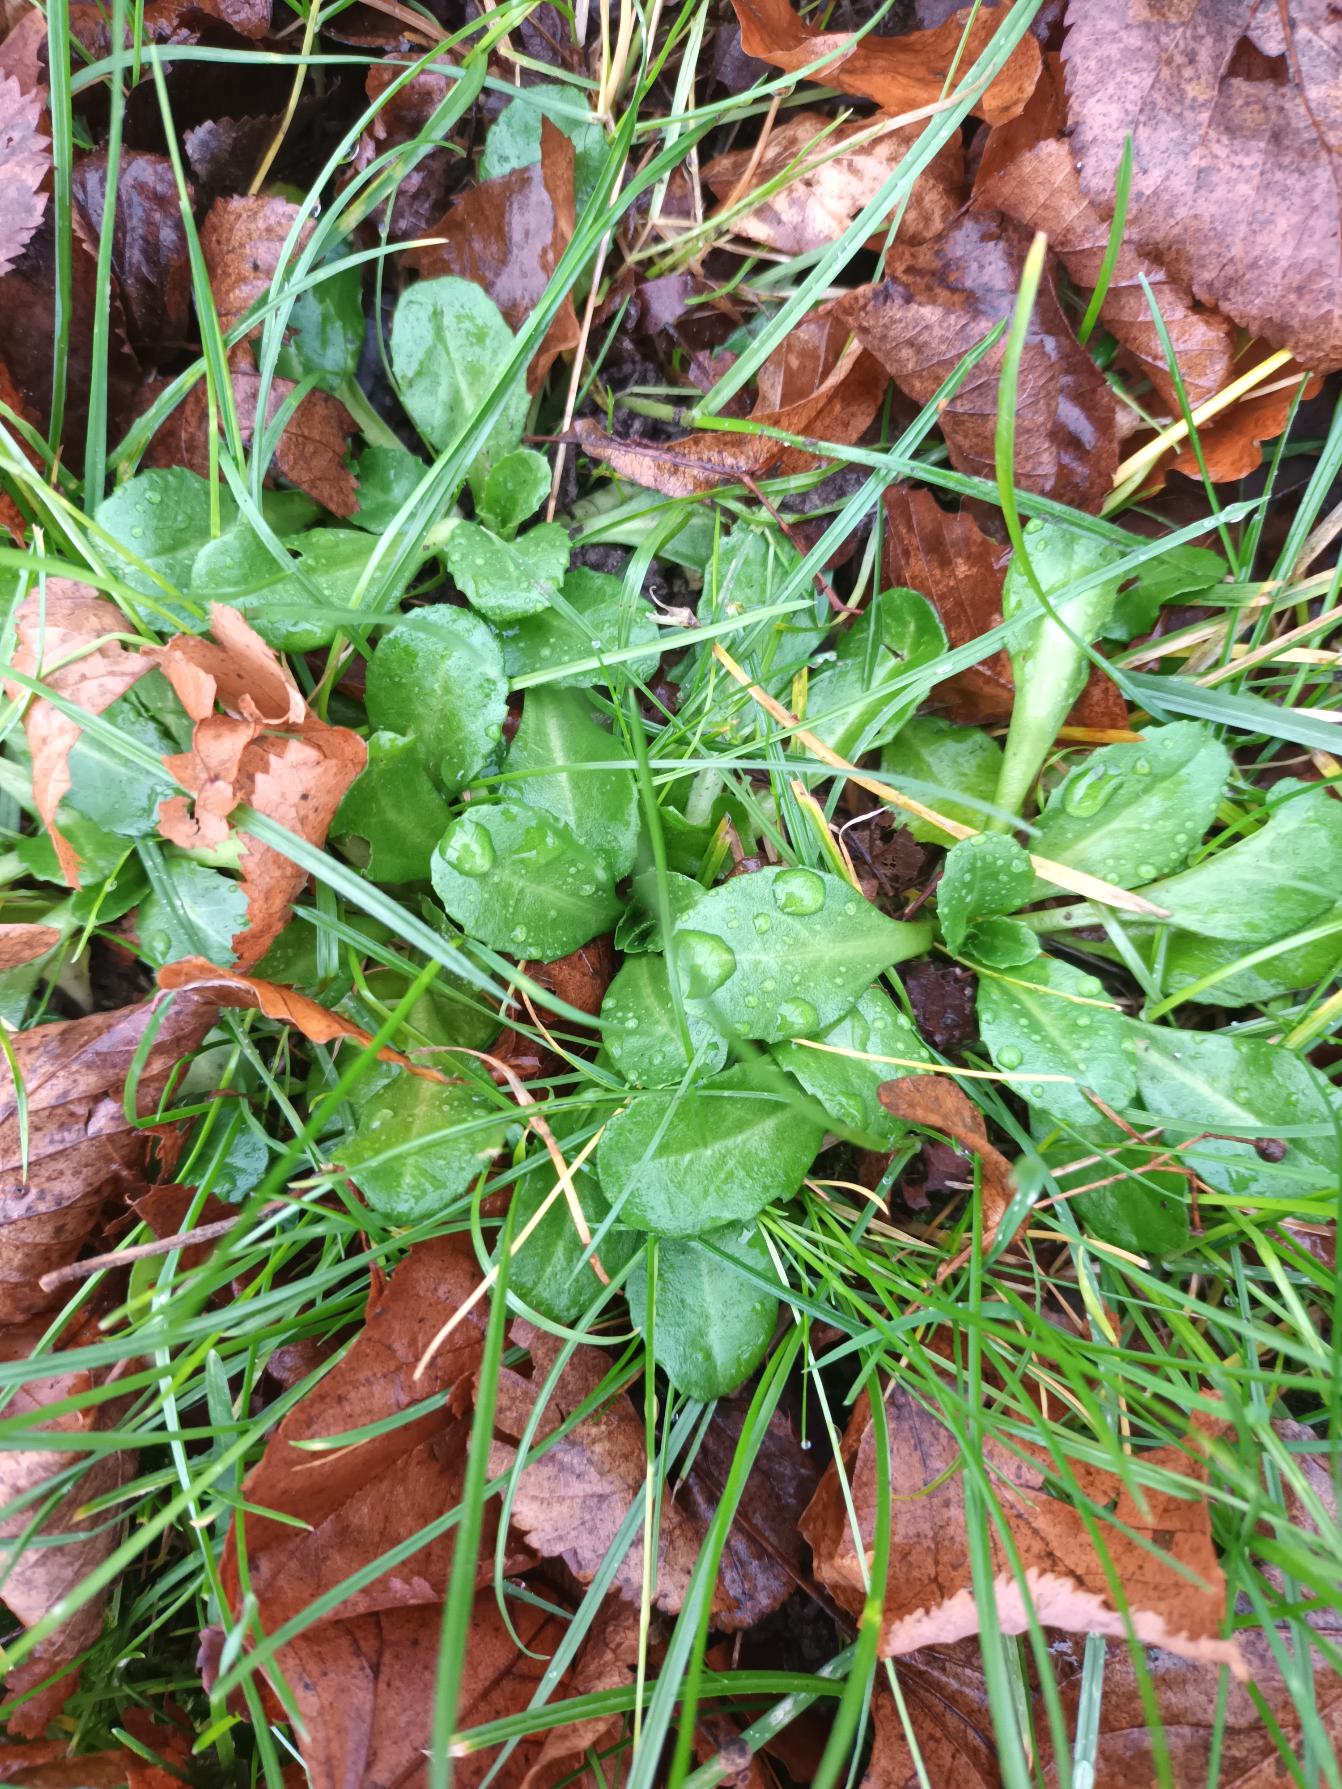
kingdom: Plantae
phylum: Tracheophyta
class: Magnoliopsida
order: Asterales
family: Asteraceae
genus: Bellis
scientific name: Bellis perennis
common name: Tusindfryd
